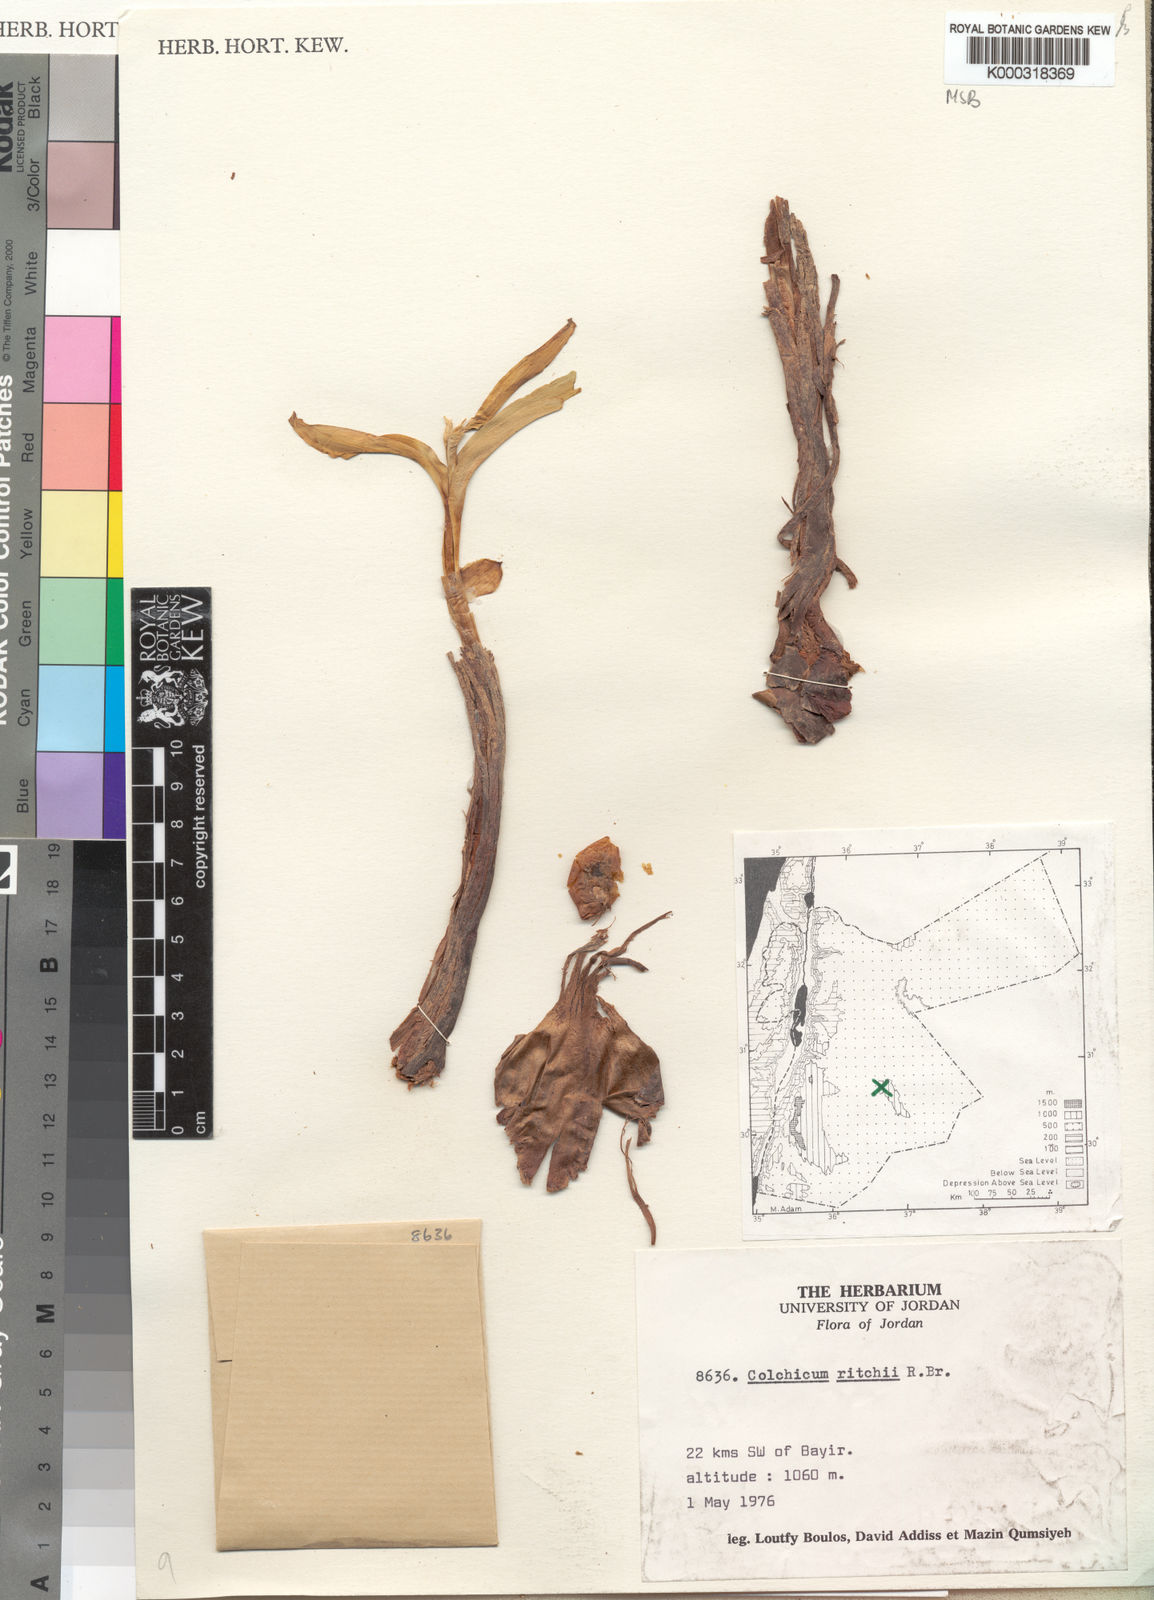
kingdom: Plantae
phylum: Tracheophyta
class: Liliopsida
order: Liliales
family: Colchicaceae
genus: Colchicum
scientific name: Colchicum ritchii
